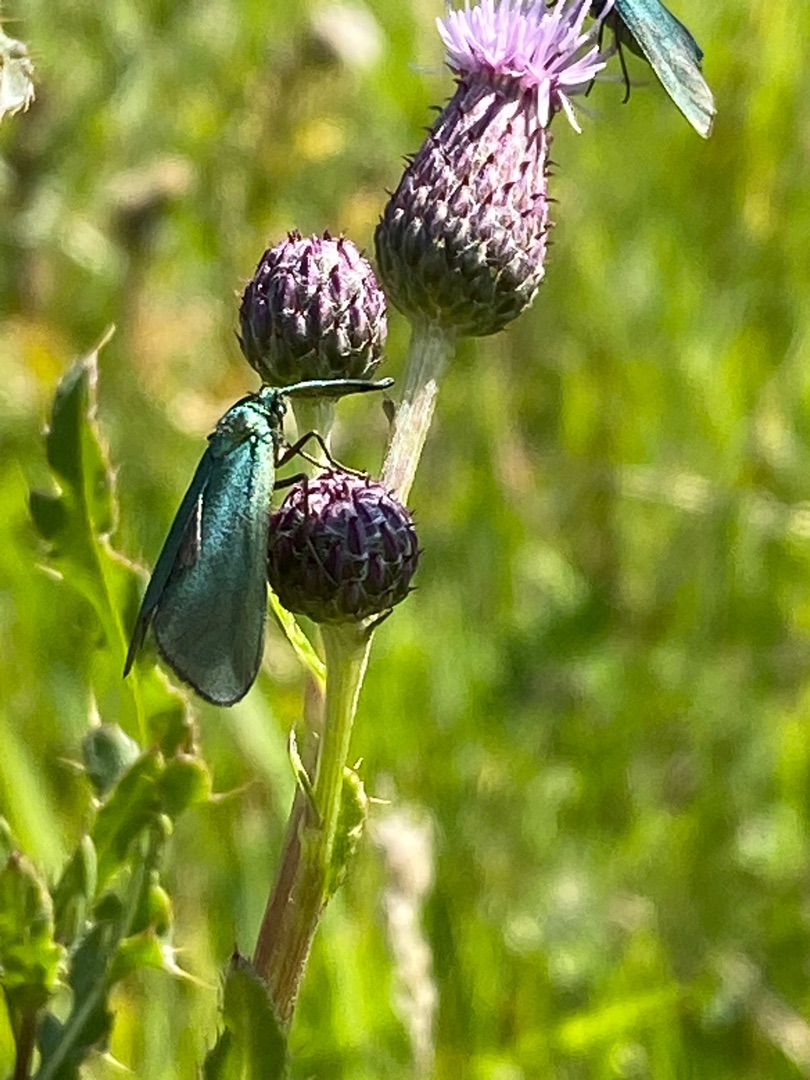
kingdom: Animalia
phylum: Arthropoda
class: Insecta
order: Lepidoptera
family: Zygaenidae
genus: Adscita
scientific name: Adscita statices
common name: Metalvinge
